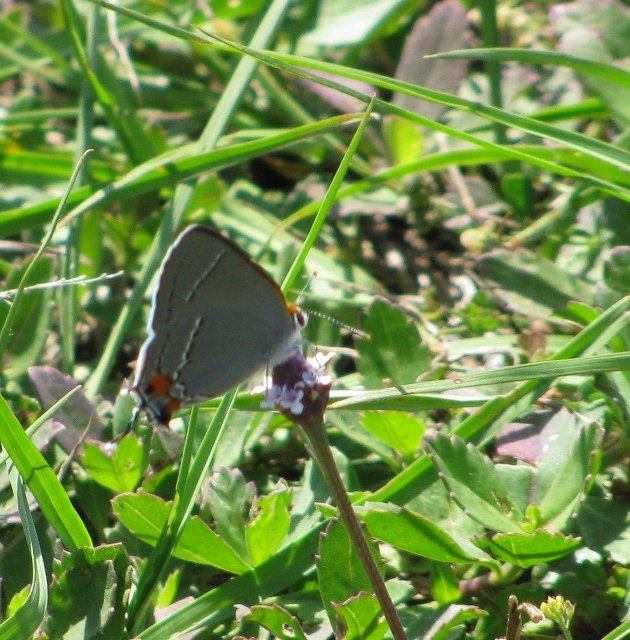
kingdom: Animalia
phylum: Arthropoda
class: Insecta
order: Lepidoptera
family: Lycaenidae
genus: Strymon
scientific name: Strymon melinus
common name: Gray Hairstreak
